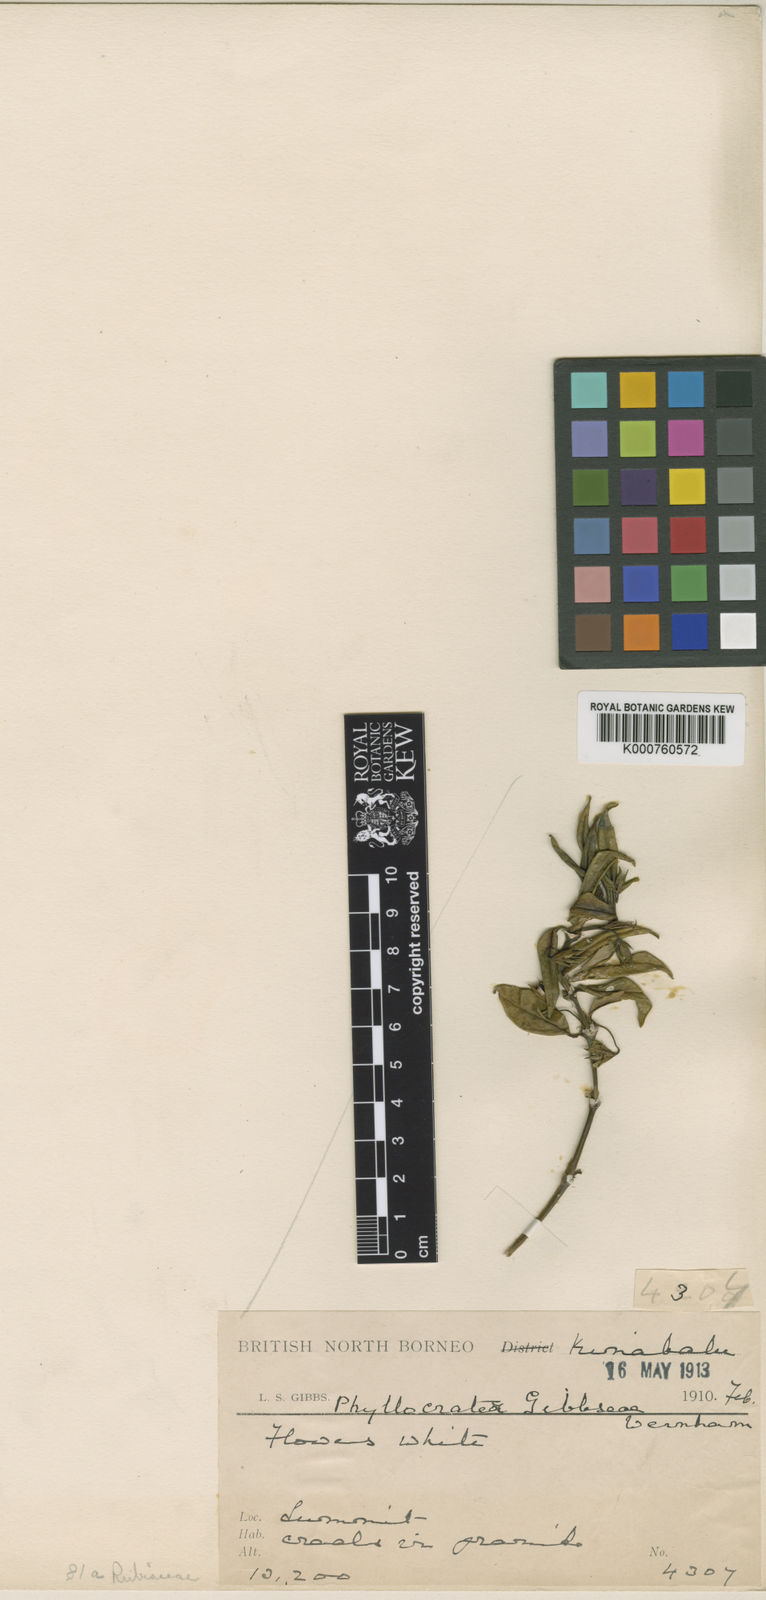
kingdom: Plantae
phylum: Tracheophyta
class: Magnoliopsida
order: Gentianales
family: Rubiaceae
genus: Phyllocrater
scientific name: Phyllocrater gibbsiae
